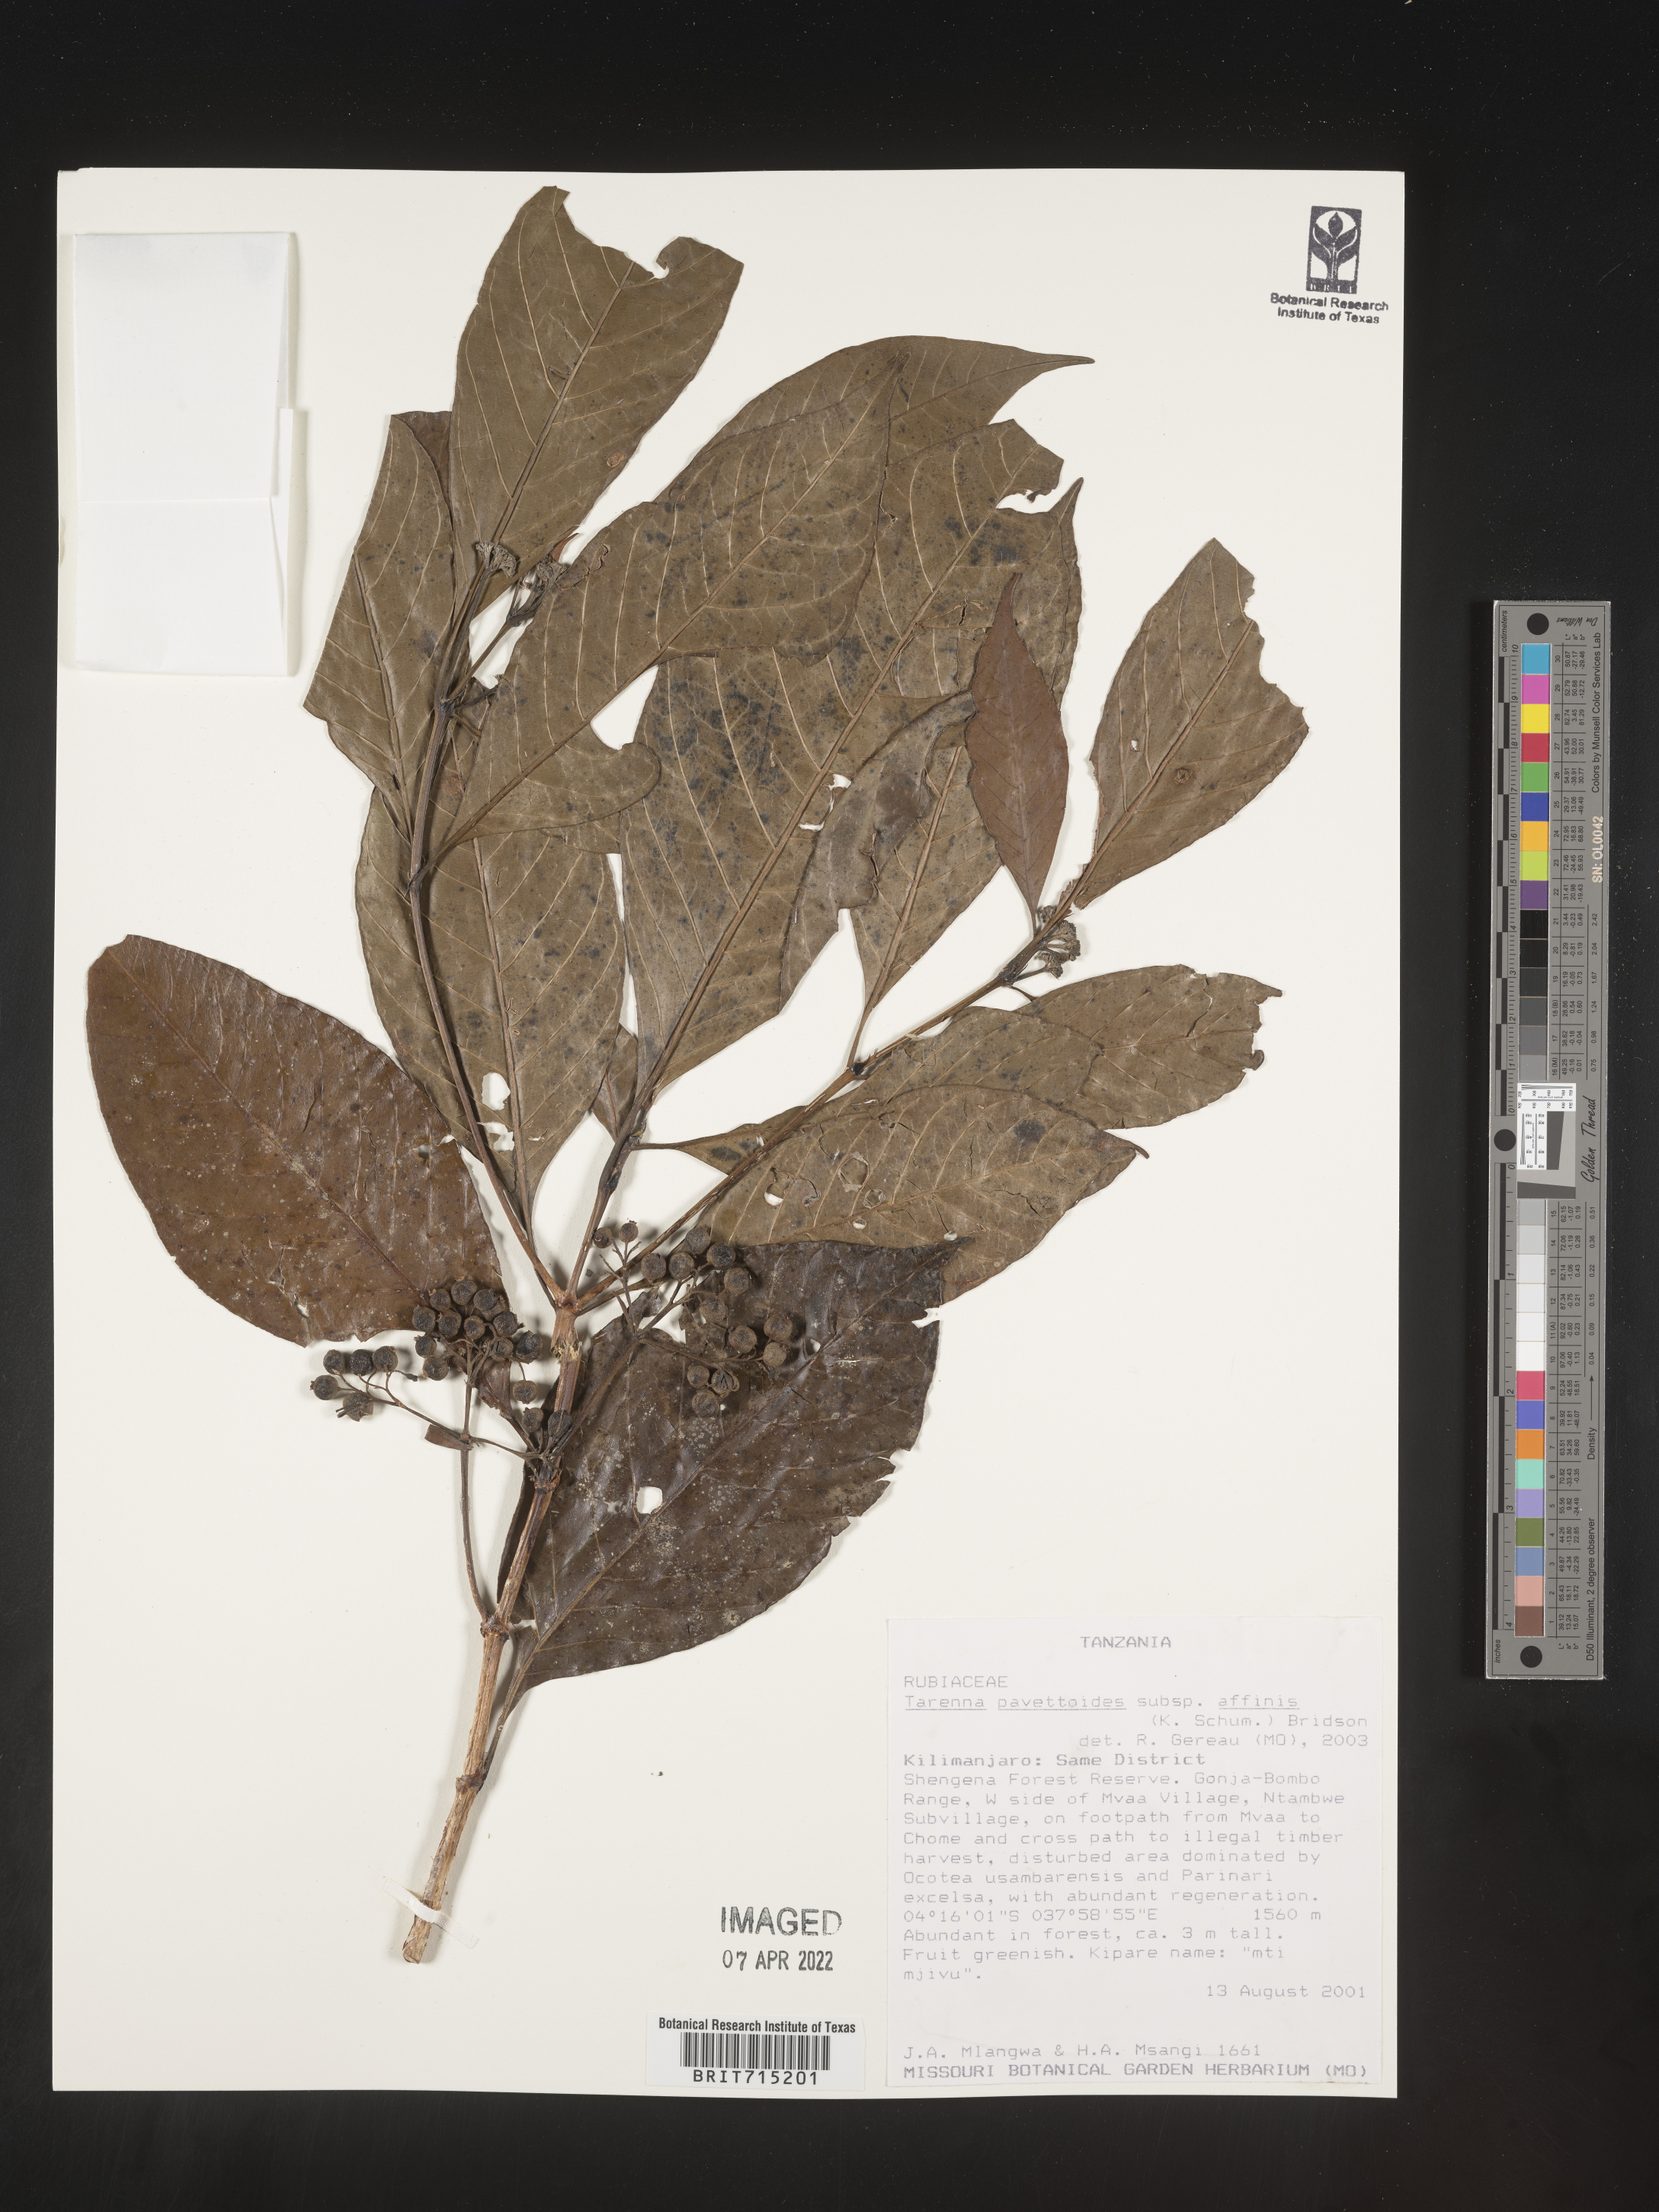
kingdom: Plantae
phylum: Tracheophyta
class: Magnoliopsida
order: Gentianales
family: Rubiaceae
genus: Tarenna
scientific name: Tarenna
